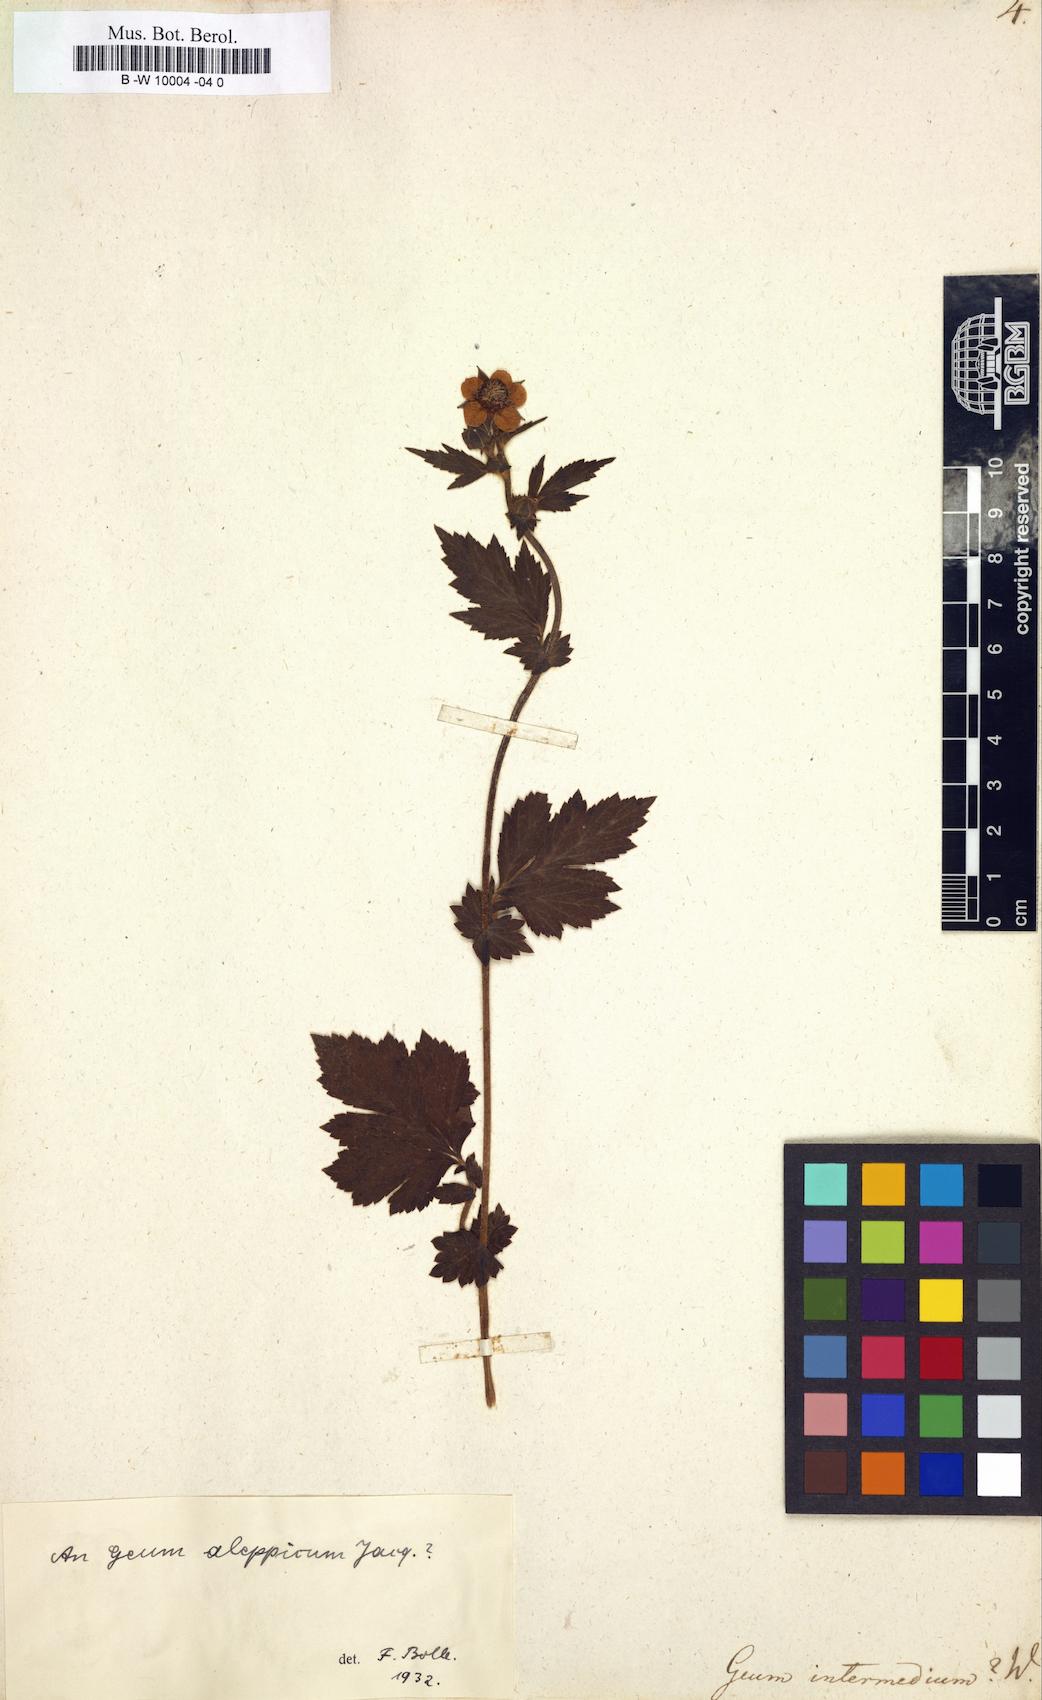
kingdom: Plantae
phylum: Tracheophyta
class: Magnoliopsida
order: Rosales
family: Rosaceae
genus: Geum
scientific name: Geum urbanum
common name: Wood avens
